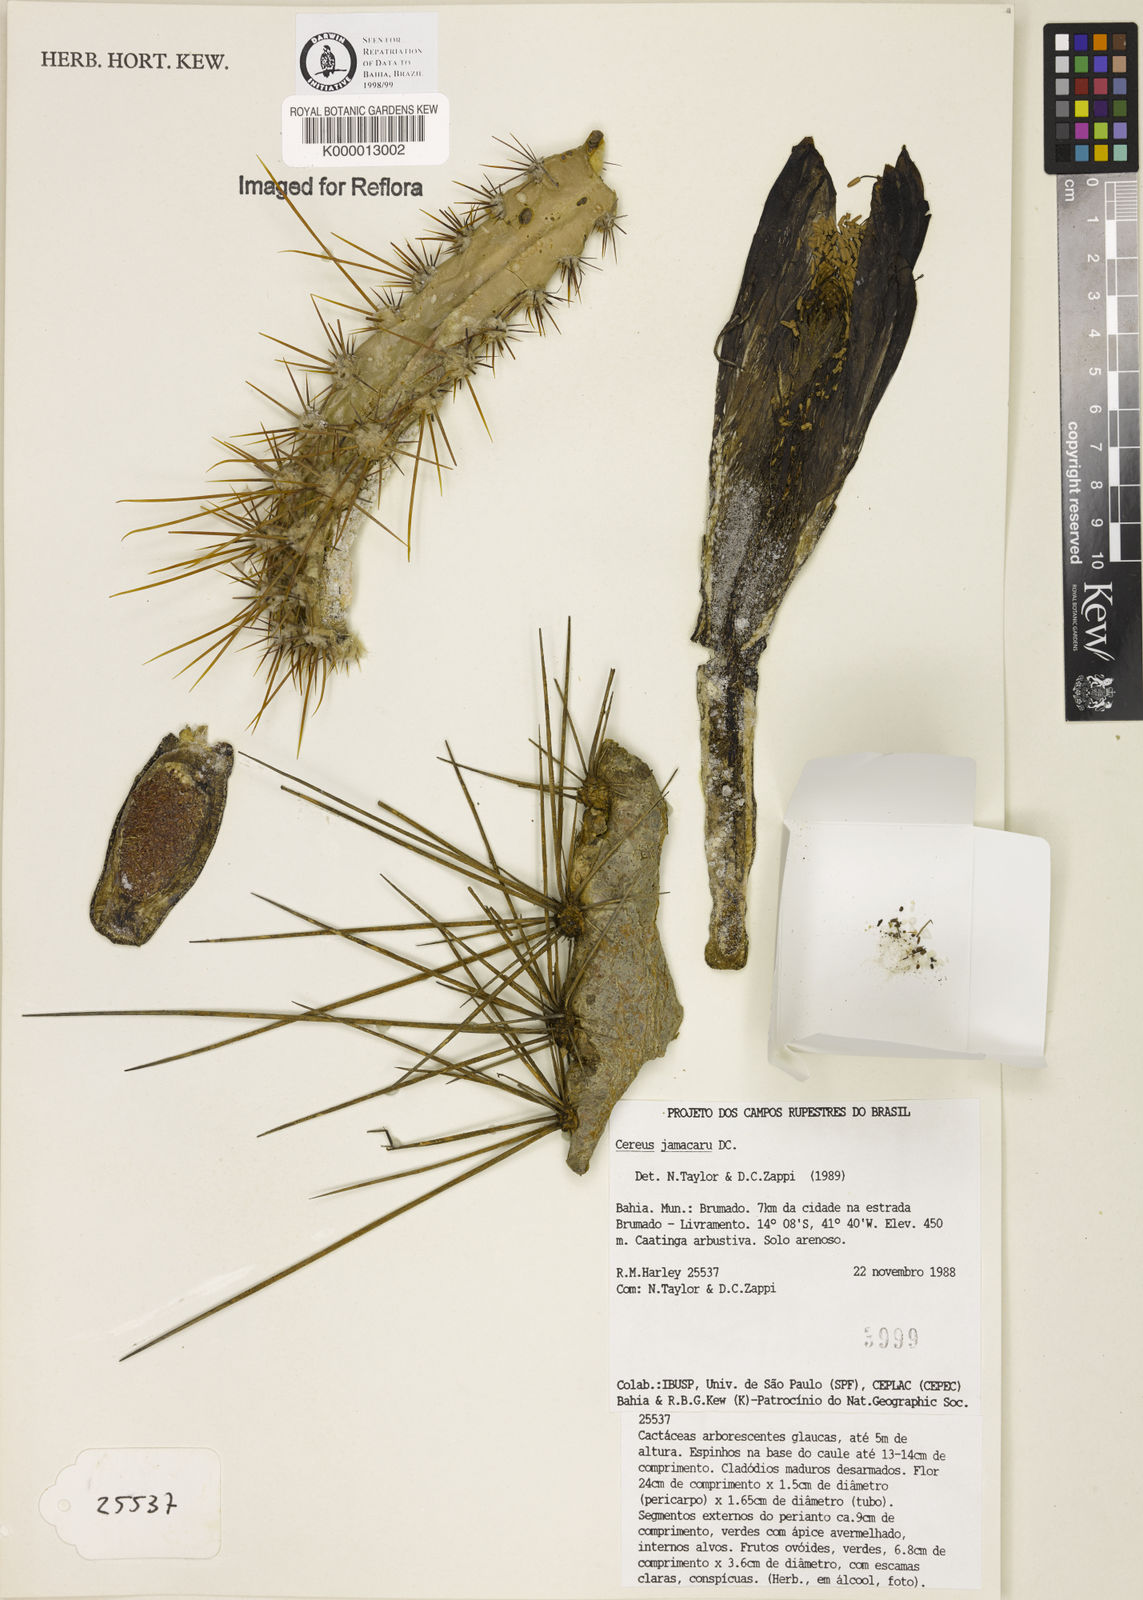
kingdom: Plantae
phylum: Tracheophyta
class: Magnoliopsida
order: Caryophyllales
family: Cactaceae
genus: Cereus
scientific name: Cereus jamacaru
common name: Queen-of-the-night
